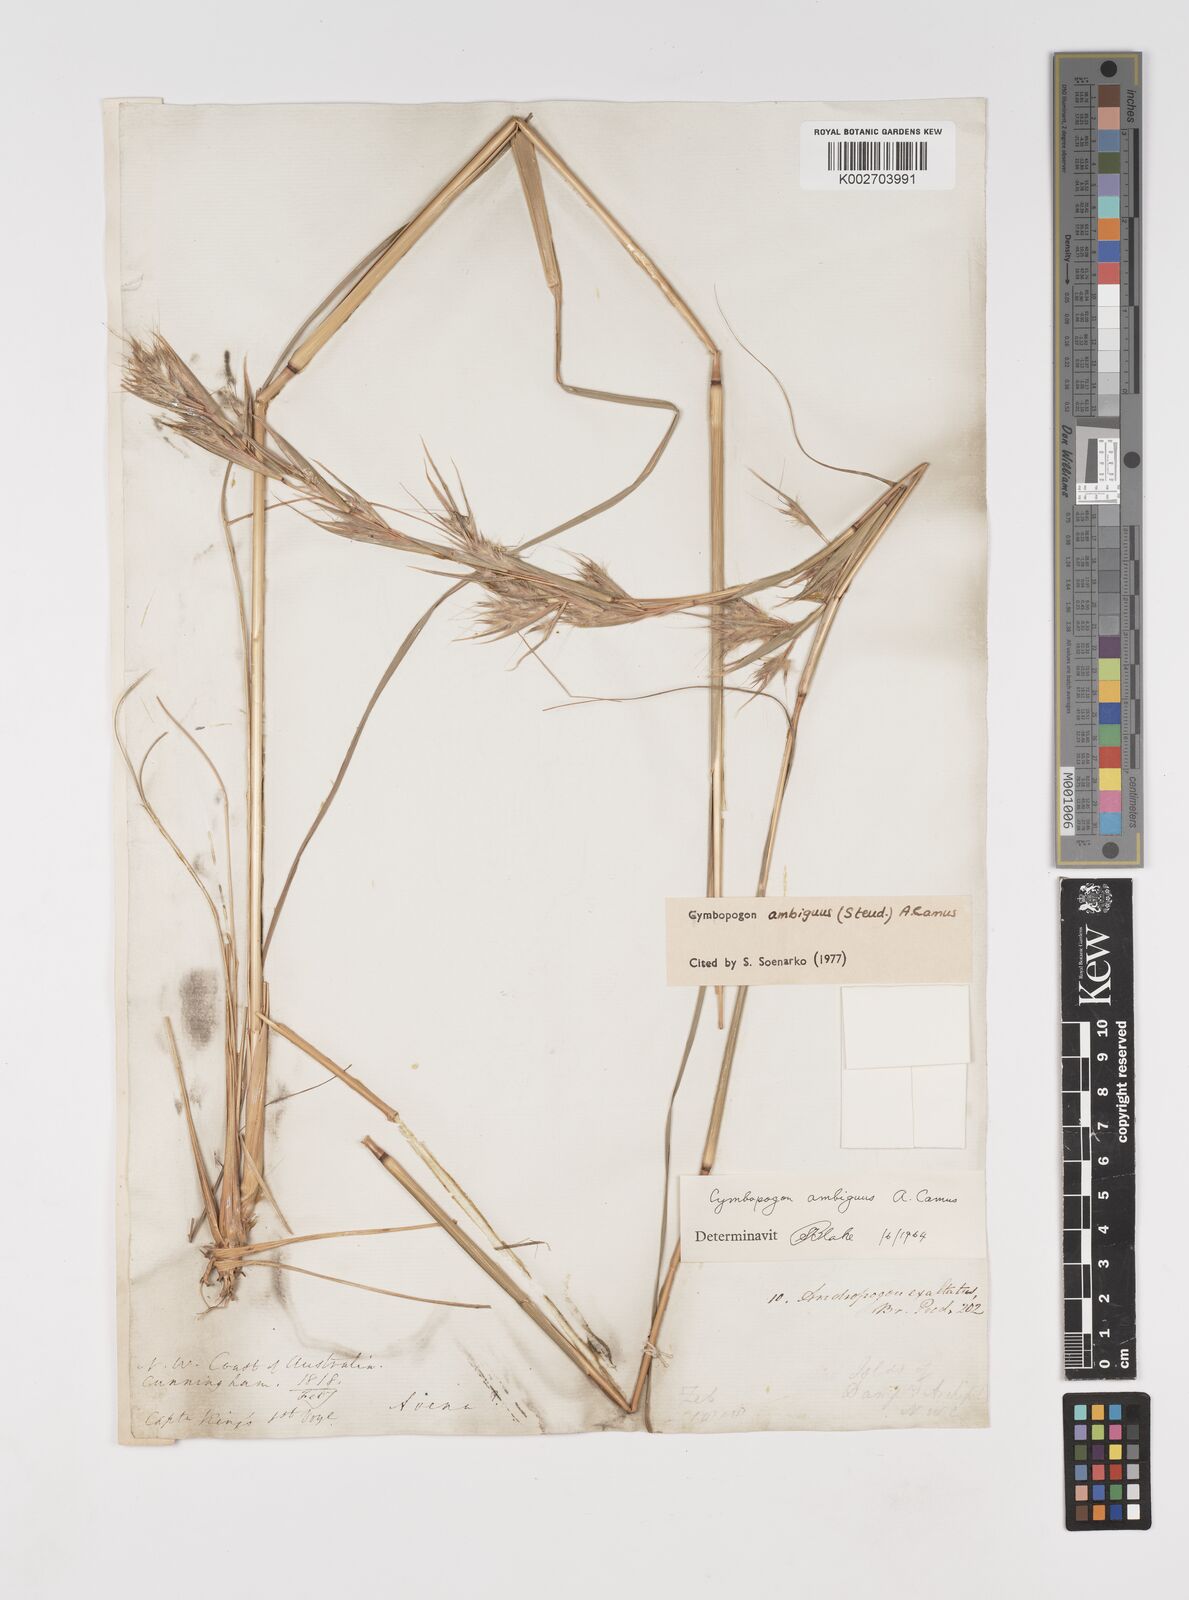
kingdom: Plantae
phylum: Tracheophyta
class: Liliopsida
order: Poales
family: Poaceae
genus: Cymbopogon
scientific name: Cymbopogon ambiguus
